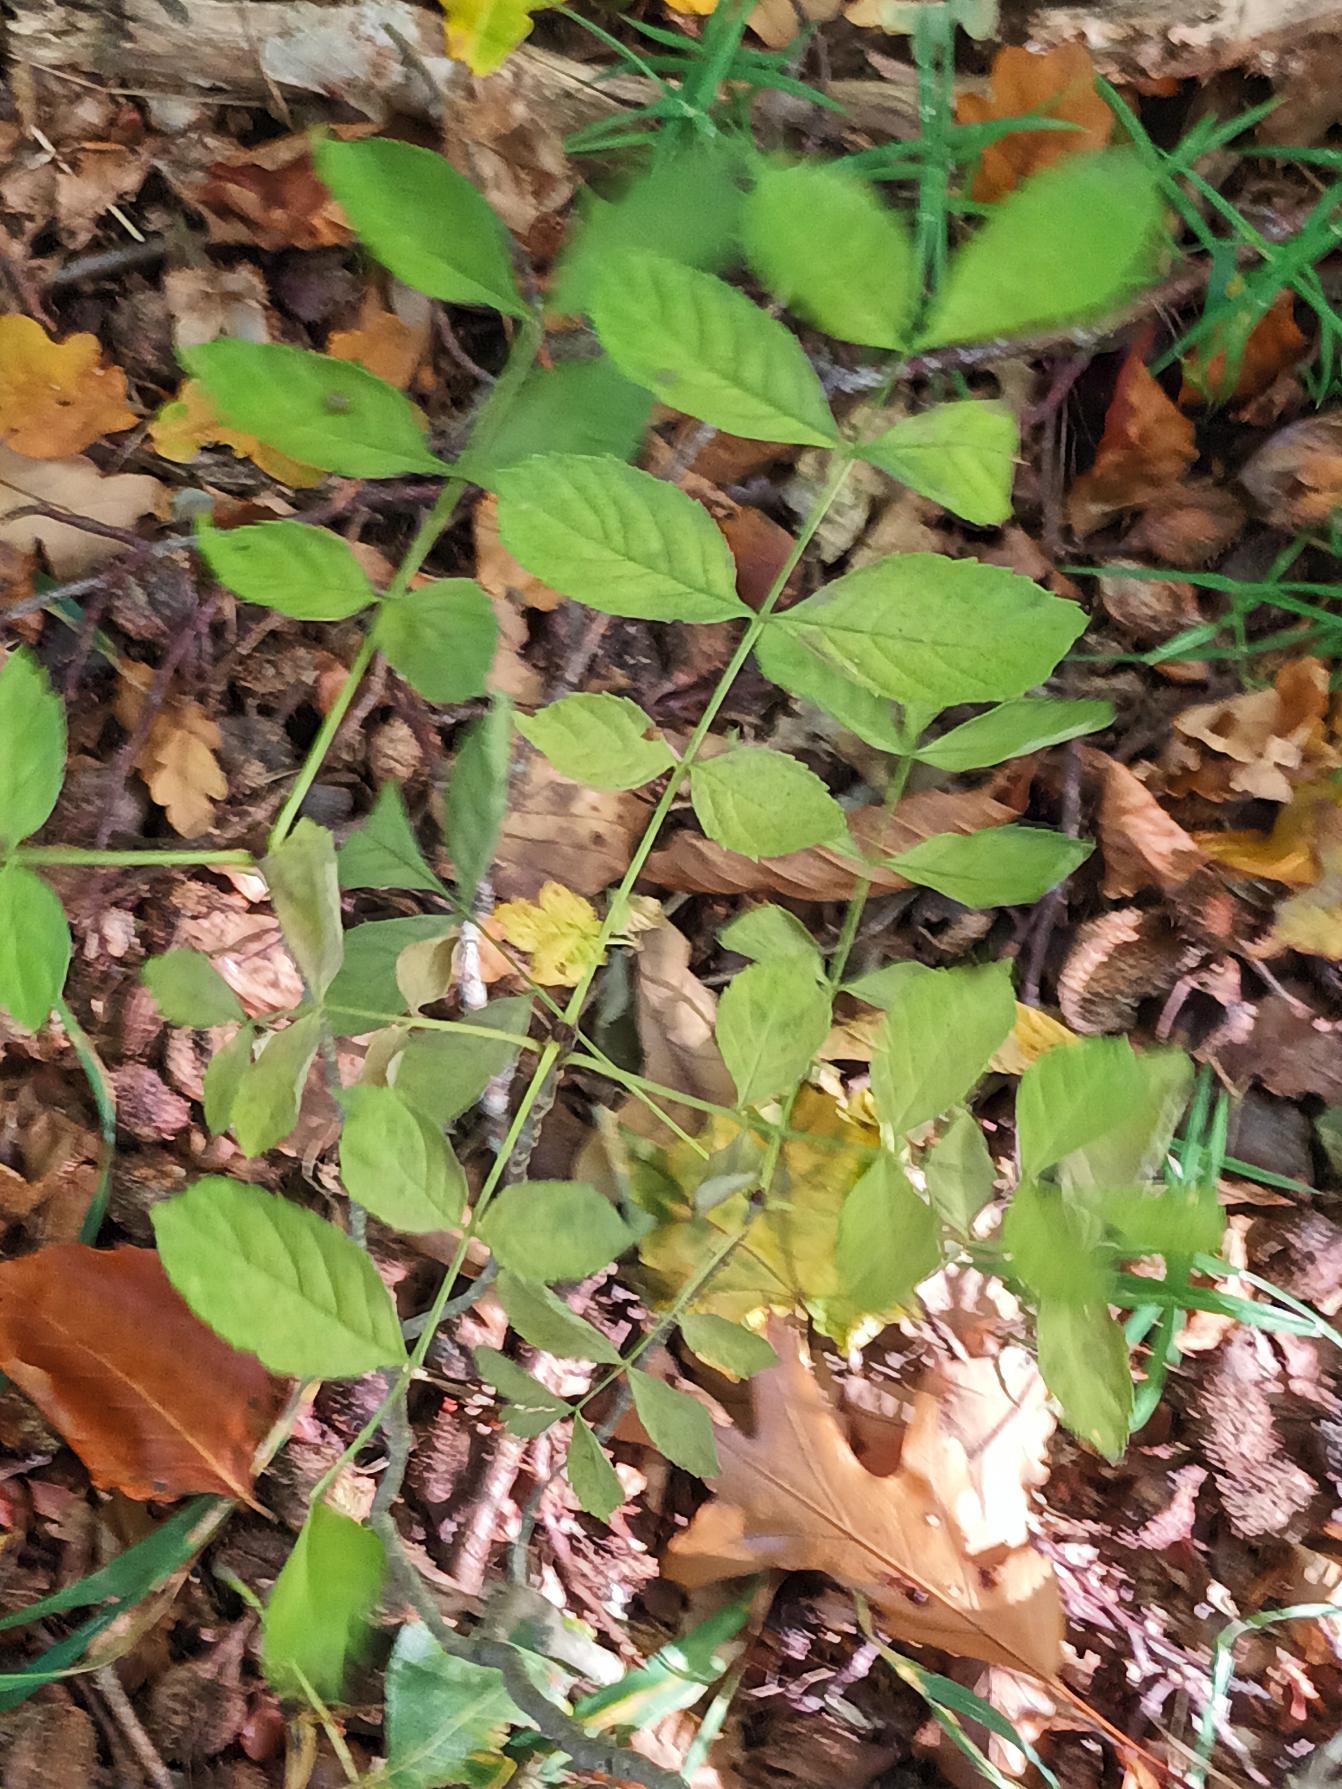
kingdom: Plantae
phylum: Tracheophyta
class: Magnoliopsida
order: Lamiales
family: Oleaceae
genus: Fraxinus
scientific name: Fraxinus excelsior
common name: Ask
